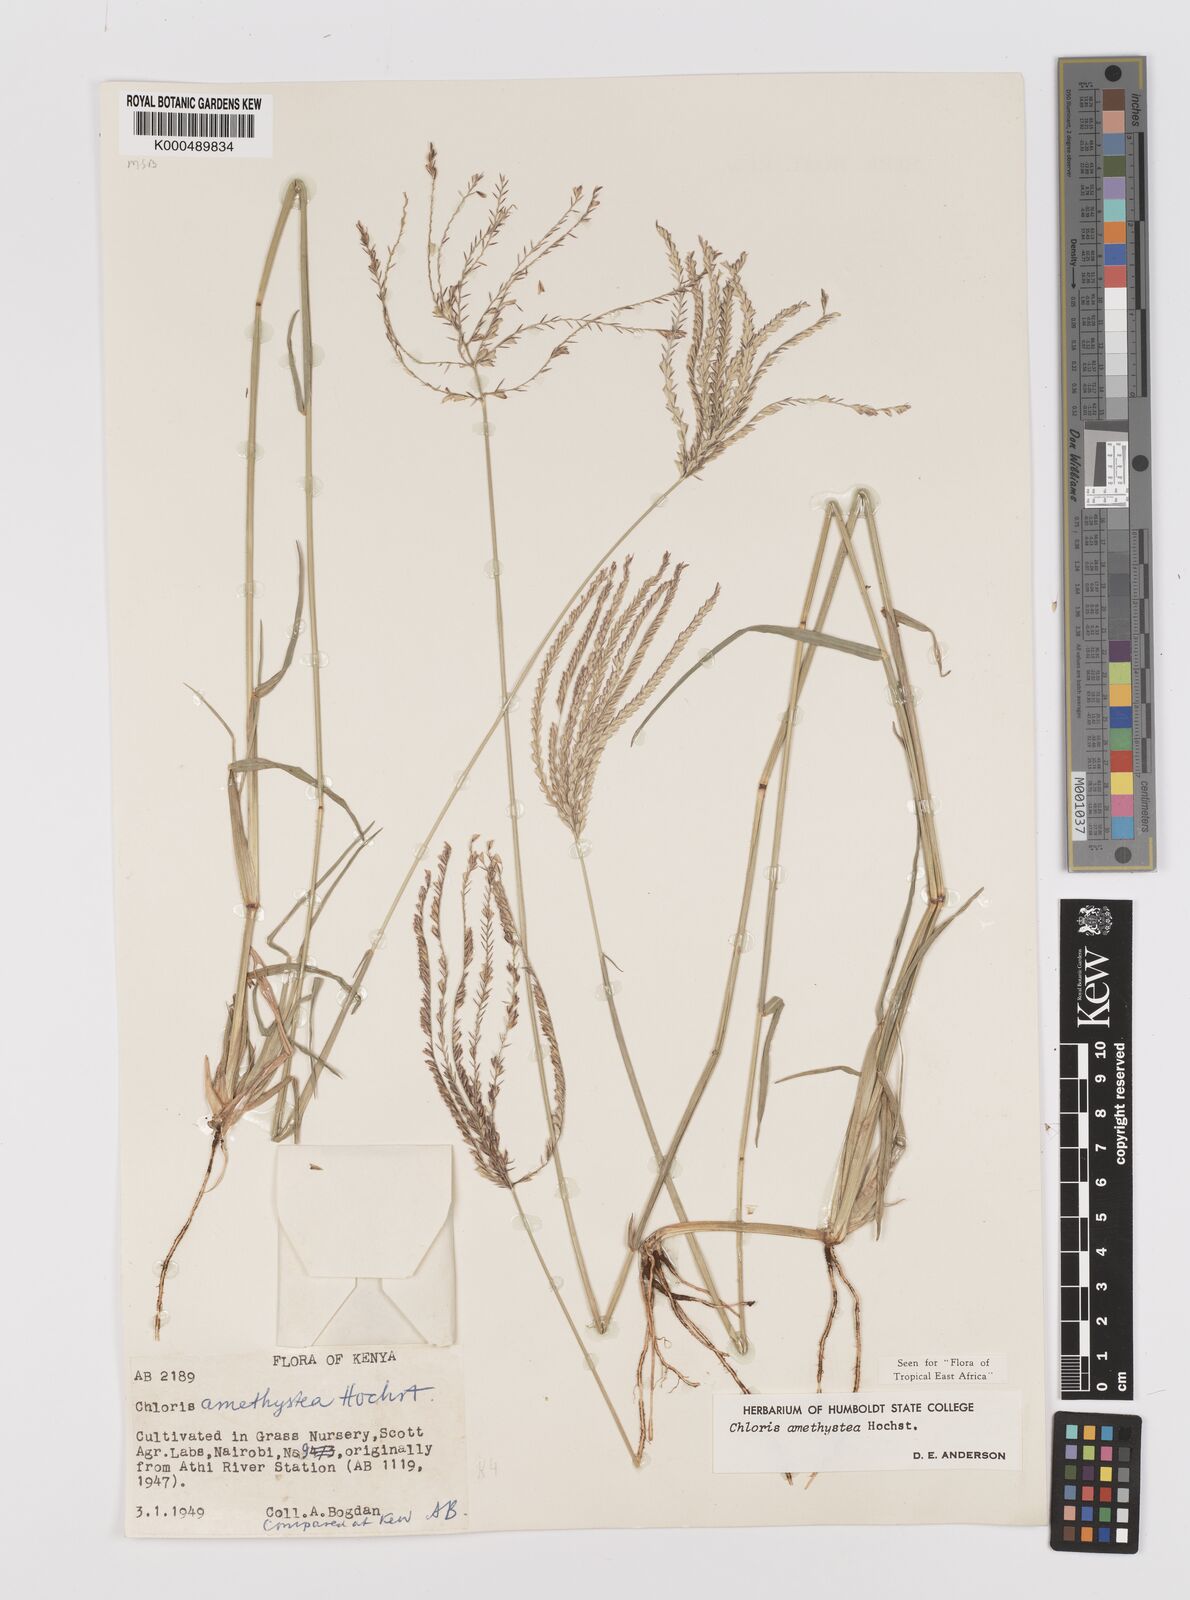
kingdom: Plantae
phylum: Tracheophyta
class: Liliopsida
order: Poales
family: Poaceae
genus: Chloris
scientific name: Chloris amethystea
